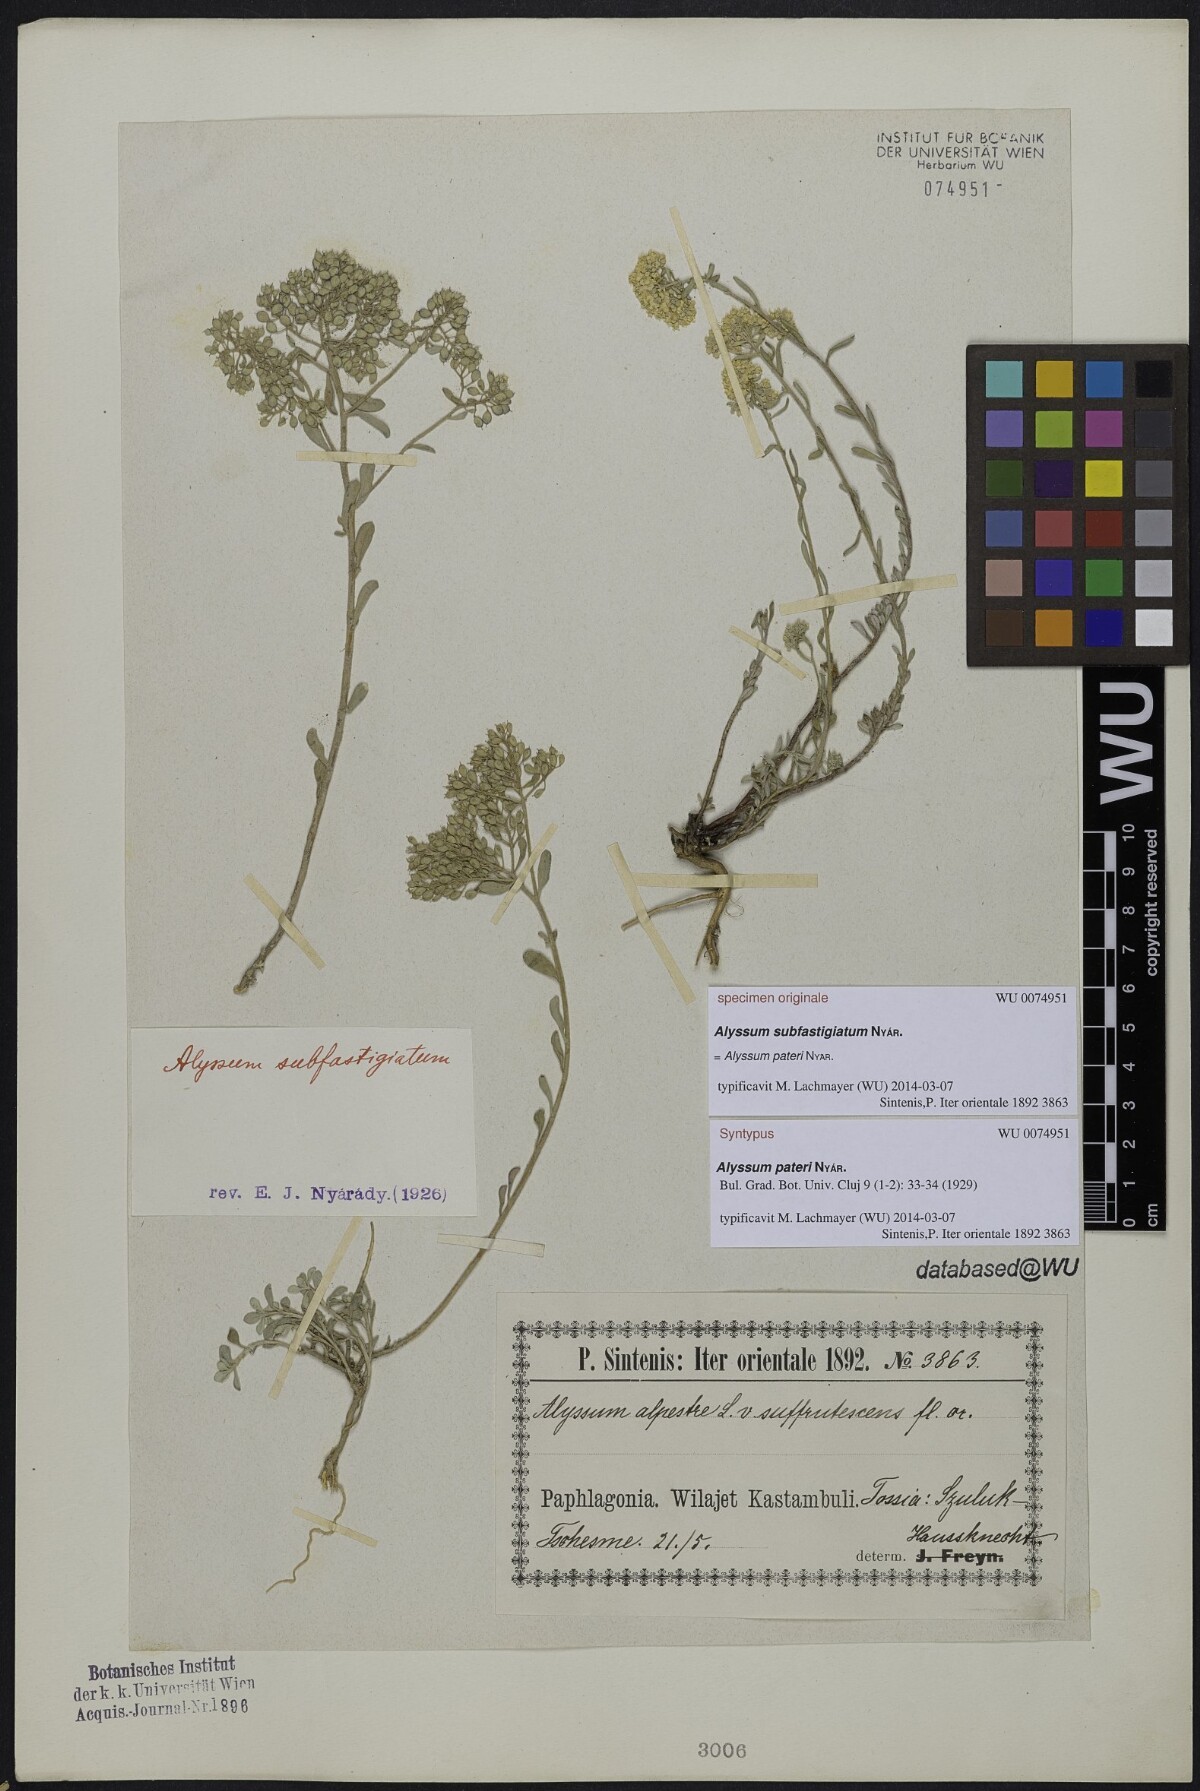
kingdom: Plantae
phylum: Tracheophyta
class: Magnoliopsida
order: Brassicales
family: Brassicaceae
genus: Odontarrhena
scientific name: Odontarrhena pateri
